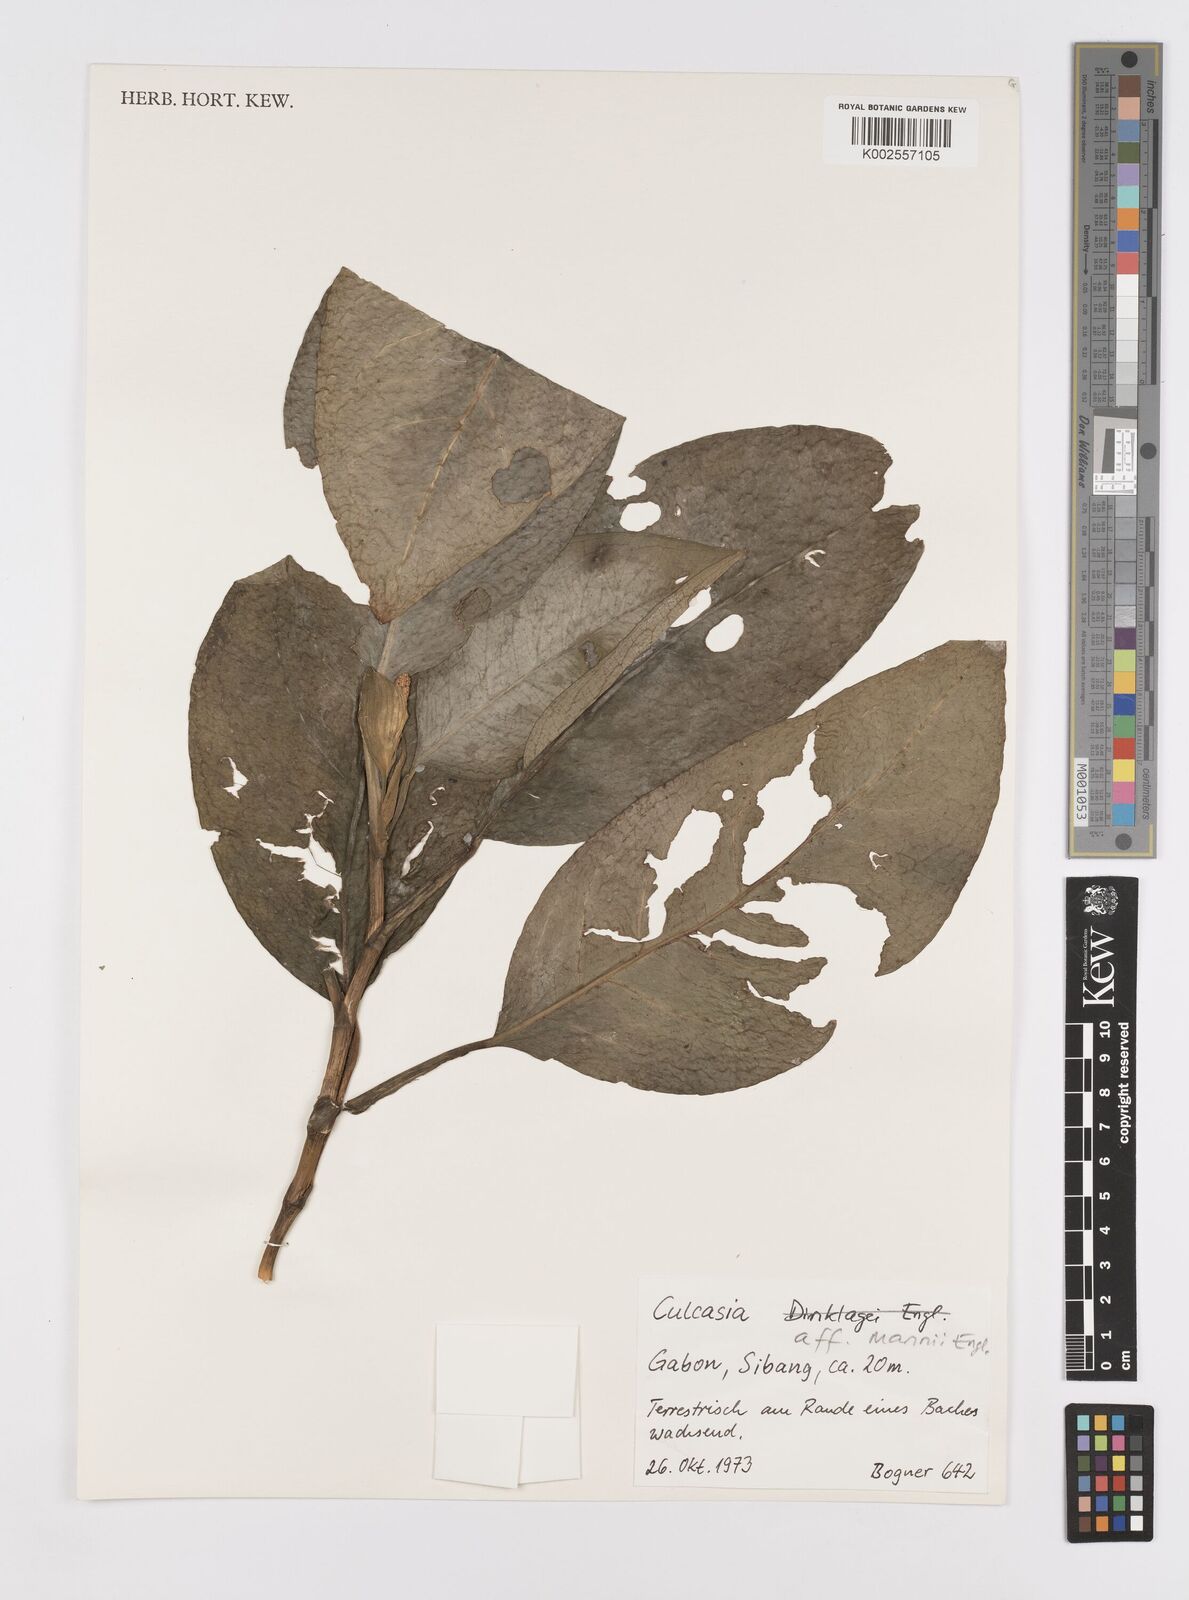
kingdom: Plantae
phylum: Tracheophyta
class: Liliopsida
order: Alismatales
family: Araceae
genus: Culcasia
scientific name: Culcasia mannii
